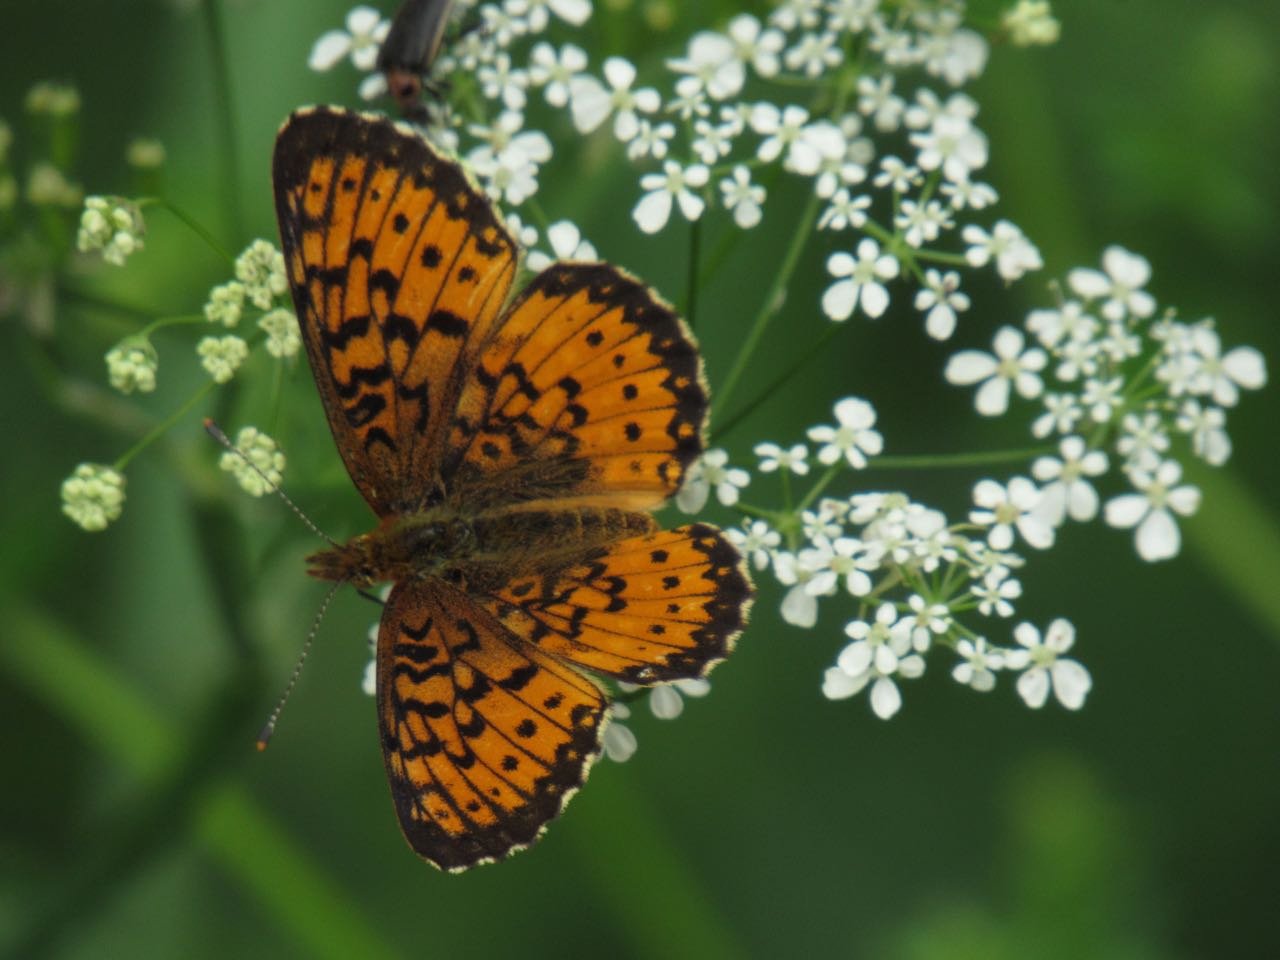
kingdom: Animalia
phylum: Arthropoda
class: Insecta
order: Lepidoptera
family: Nymphalidae
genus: Boloria
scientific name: Boloria selene
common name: Silver-bordered Fritillary
